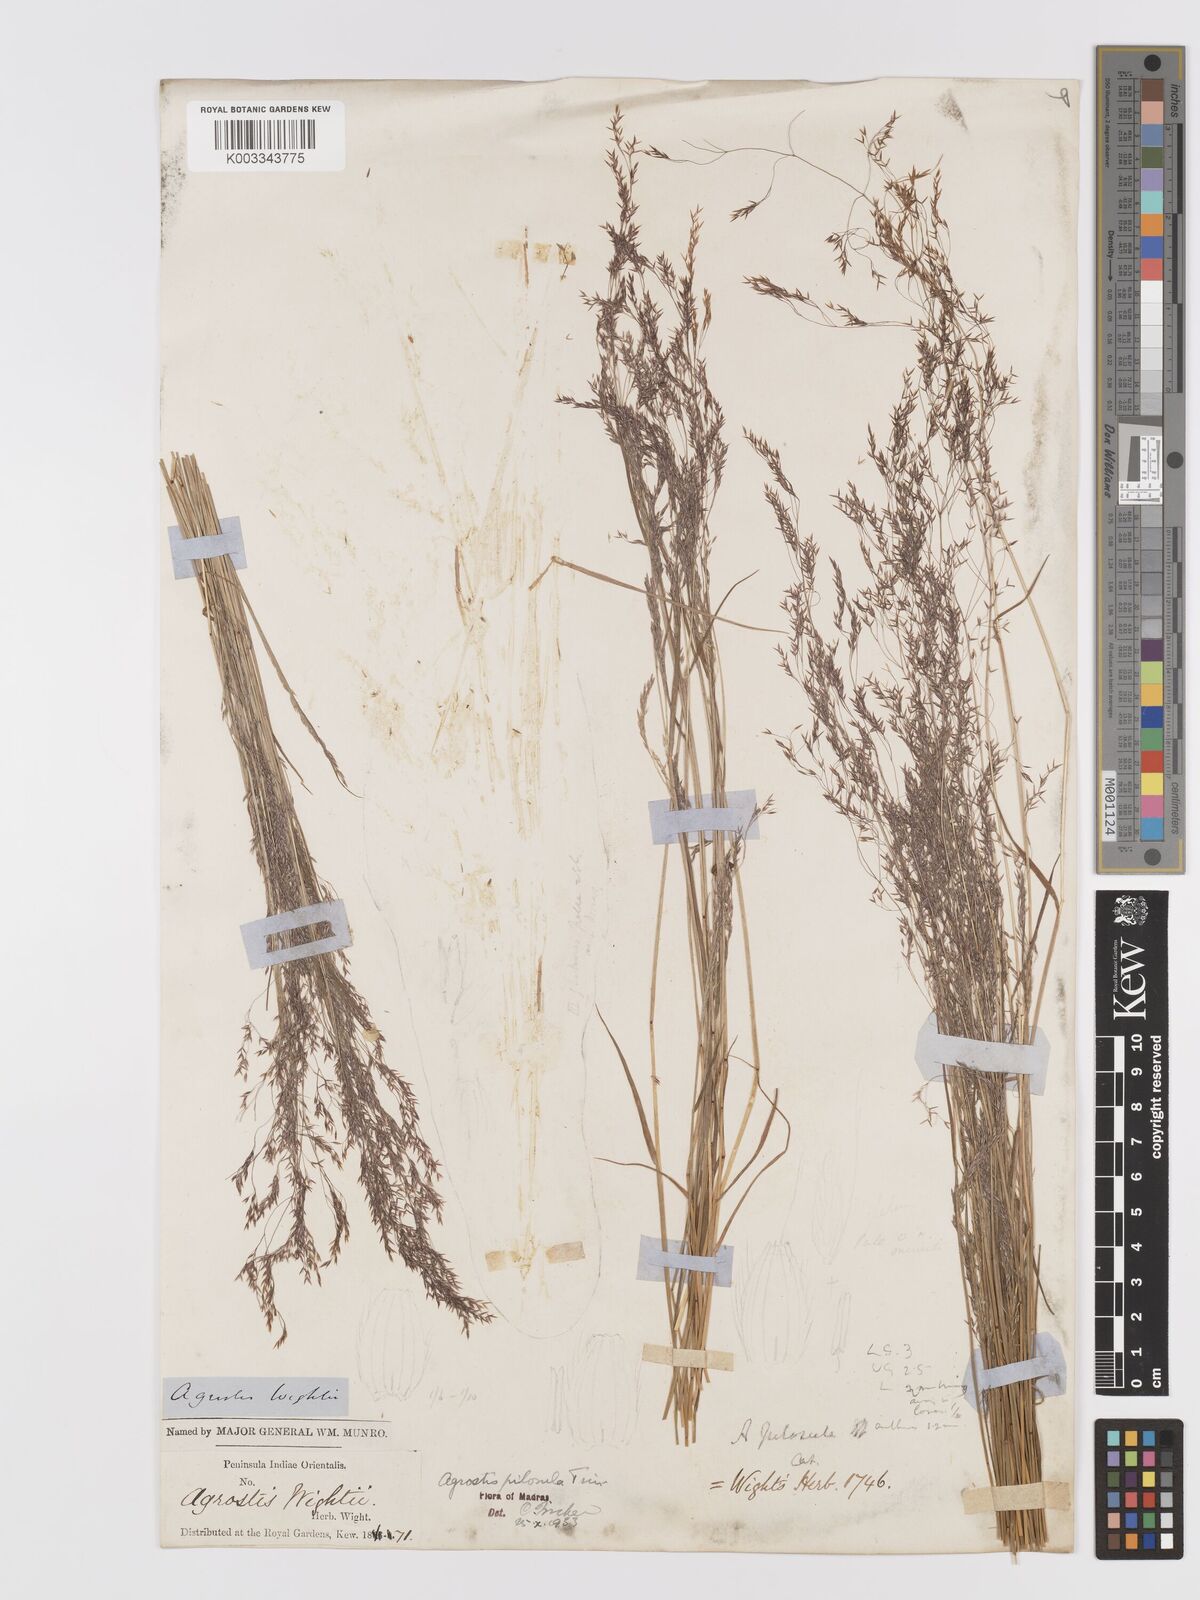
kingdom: Plantae
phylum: Tracheophyta
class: Liliopsida
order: Poales
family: Poaceae
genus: Agrostis
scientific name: Agrostis pilosula
